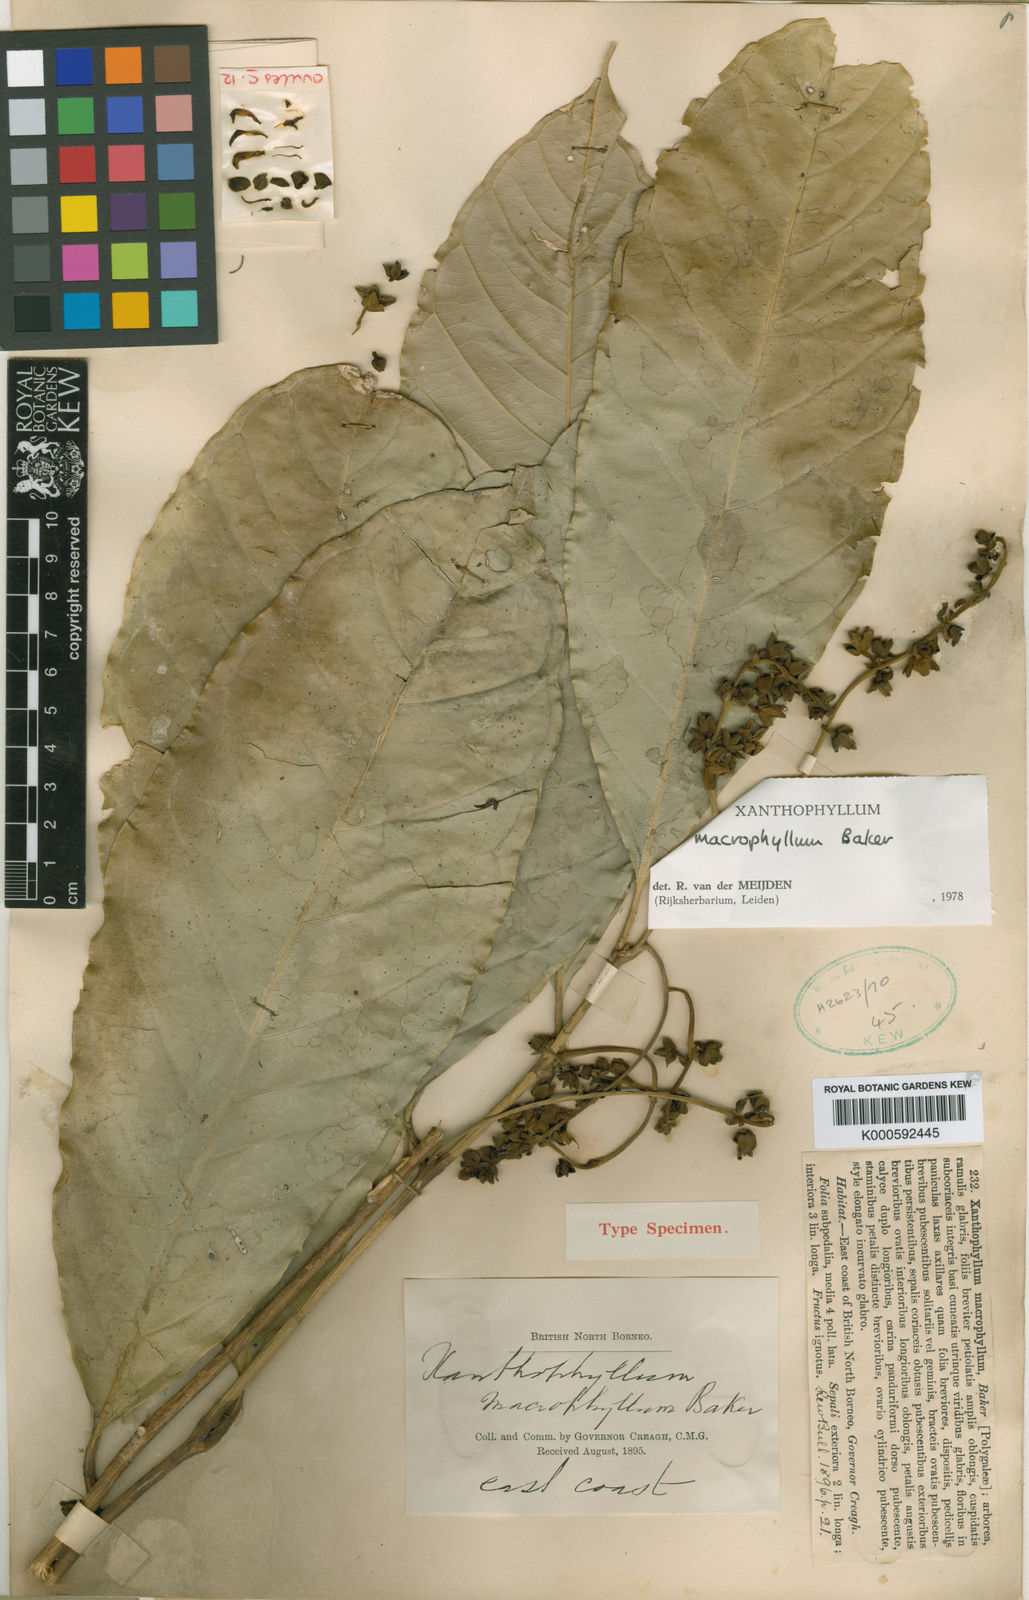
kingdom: Plantae
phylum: Tracheophyta
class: Magnoliopsida
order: Fabales
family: Polygalaceae
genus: Xanthophyllum
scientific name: Xanthophyllum macrophyllum
